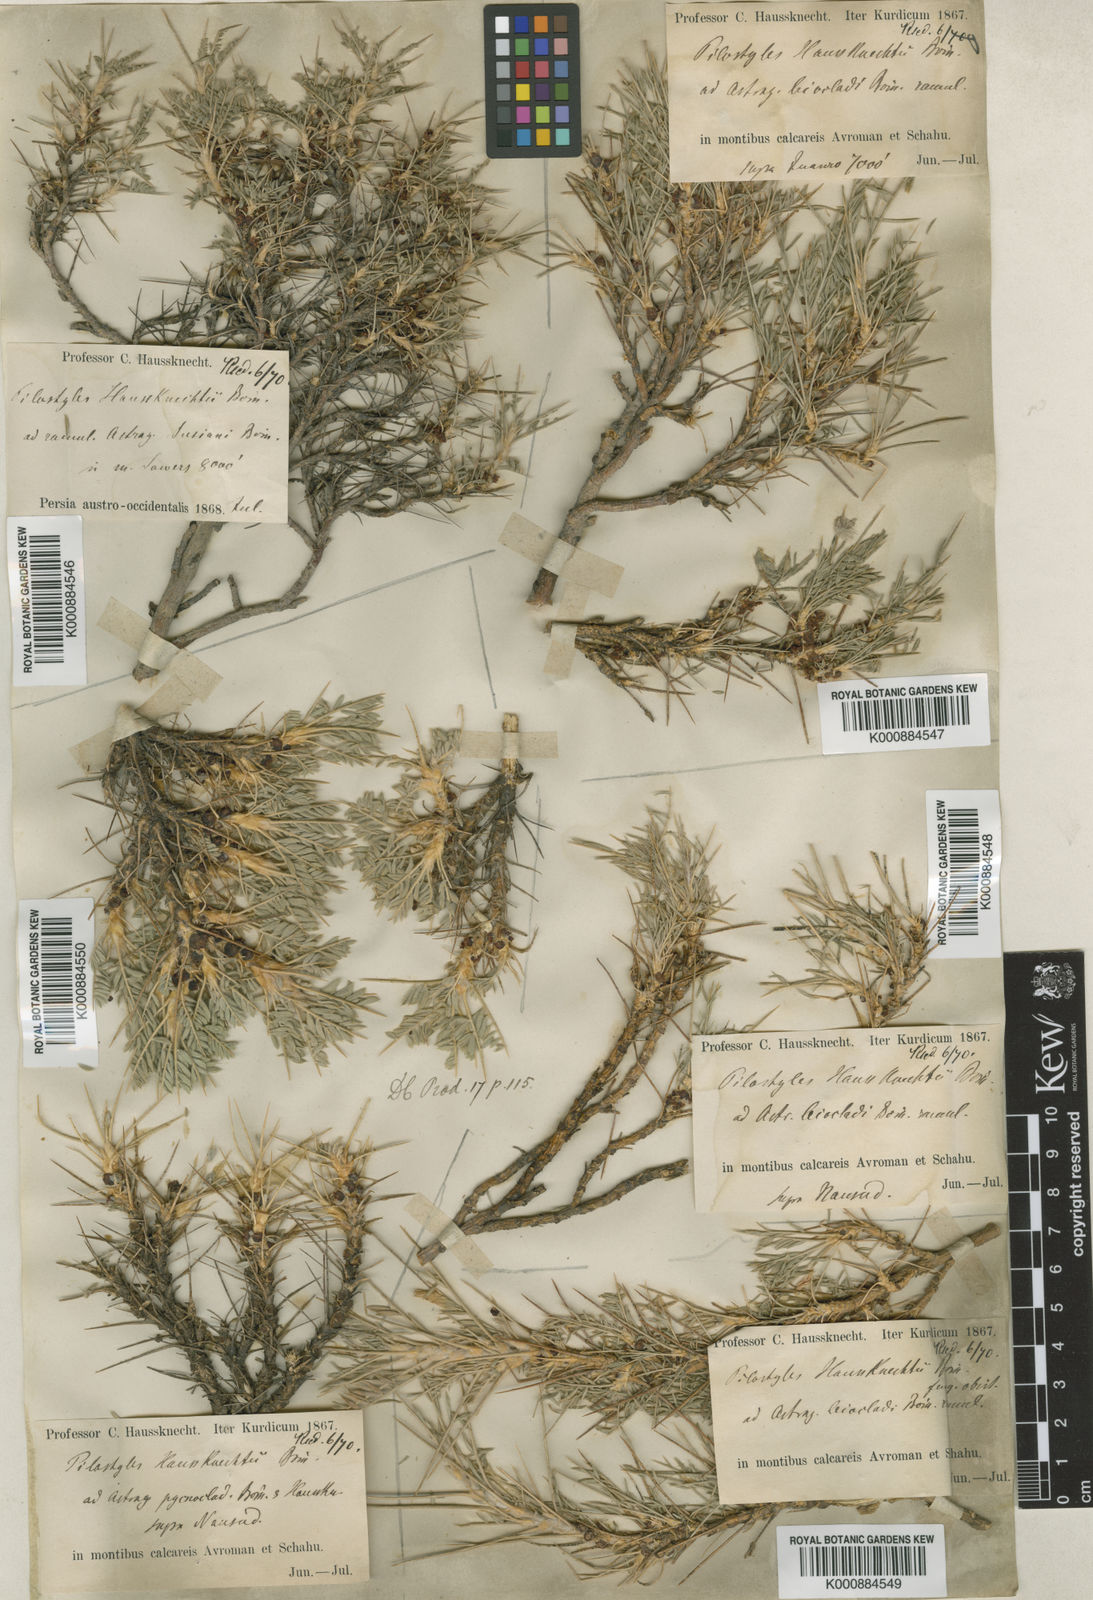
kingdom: Plantae
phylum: Tracheophyta
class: Magnoliopsida
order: Cucurbitales
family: Apodanthaceae
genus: Pilostyles
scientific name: Pilostyles haussknechtii
